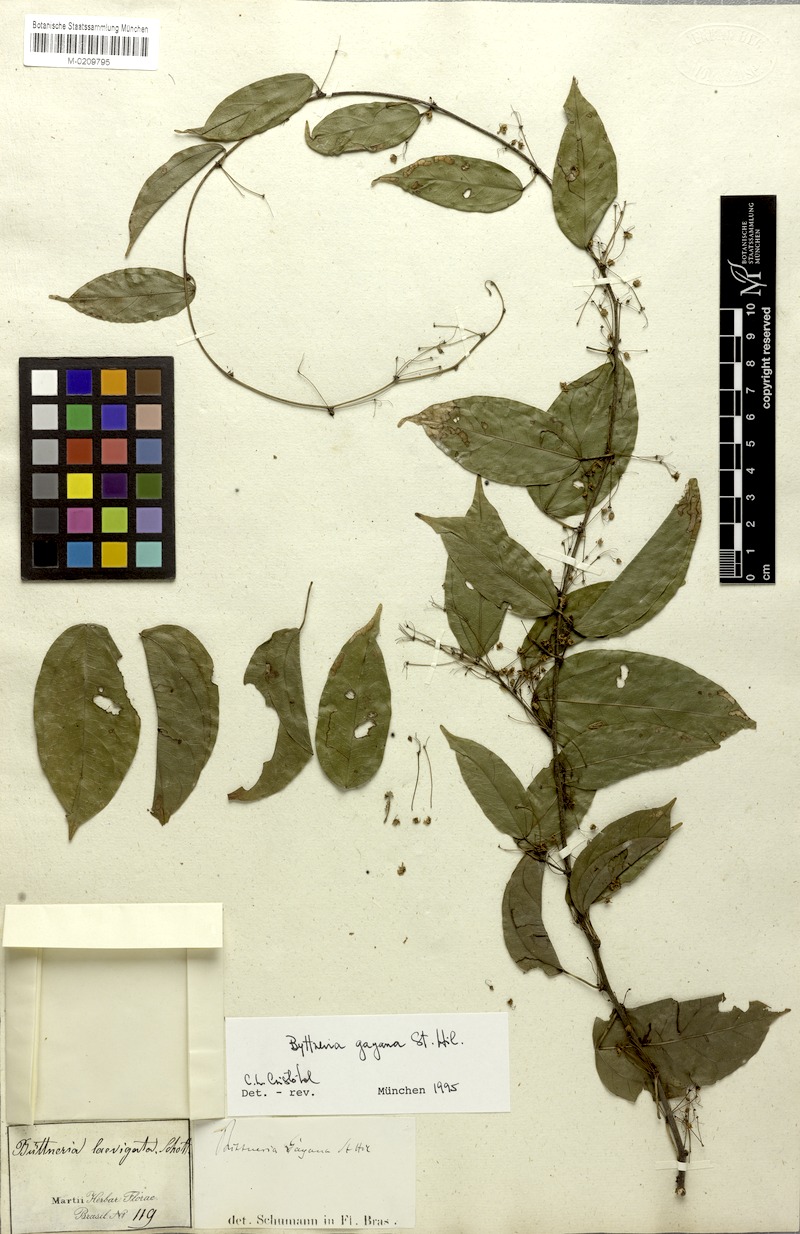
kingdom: Plantae
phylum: Tracheophyta
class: Magnoliopsida
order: Malvales
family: Malvaceae
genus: Byttneria
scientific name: Byttneria gayana
